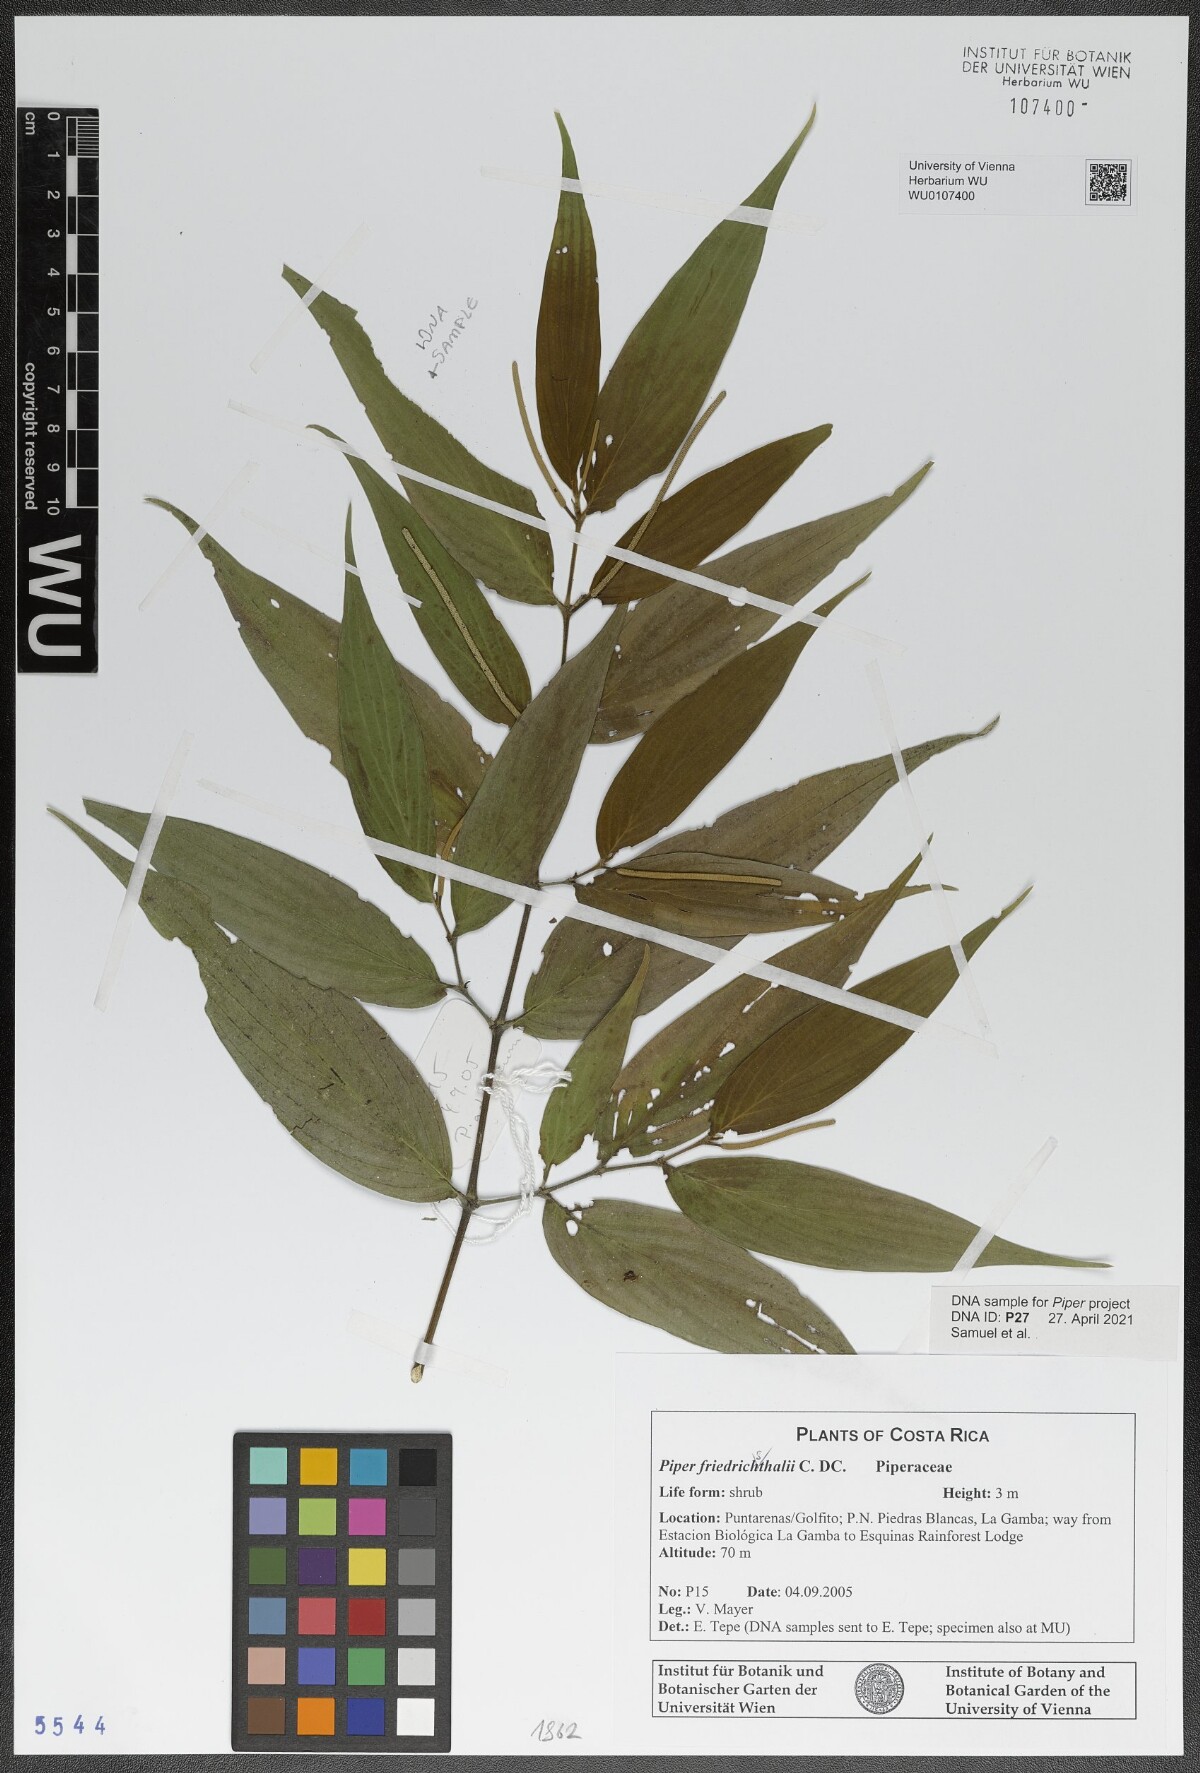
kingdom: Plantae
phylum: Tracheophyta
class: Magnoliopsida
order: Piperales
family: Piperaceae
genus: Piper
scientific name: Piper friedrichsthalii
